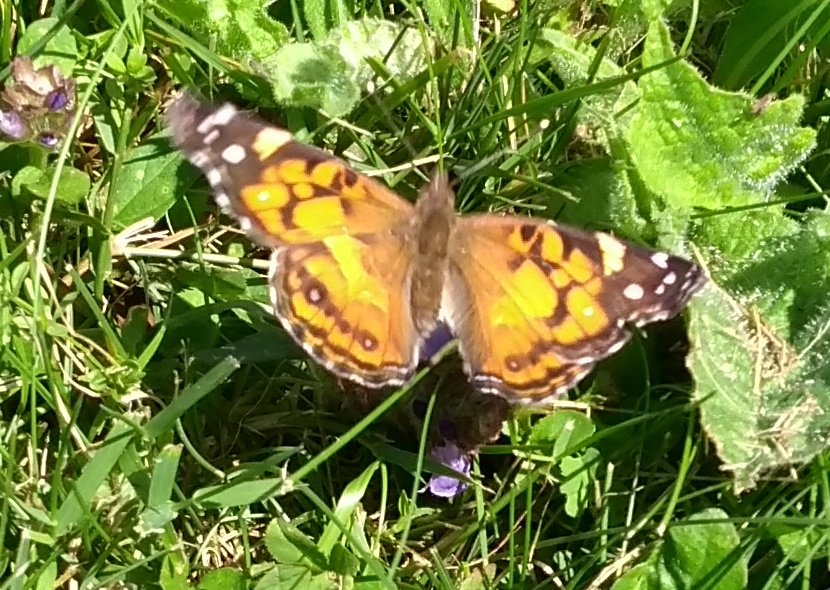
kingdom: Animalia
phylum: Arthropoda
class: Insecta
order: Lepidoptera
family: Nymphalidae
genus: Vanessa
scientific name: Vanessa virginiensis
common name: American Lady
